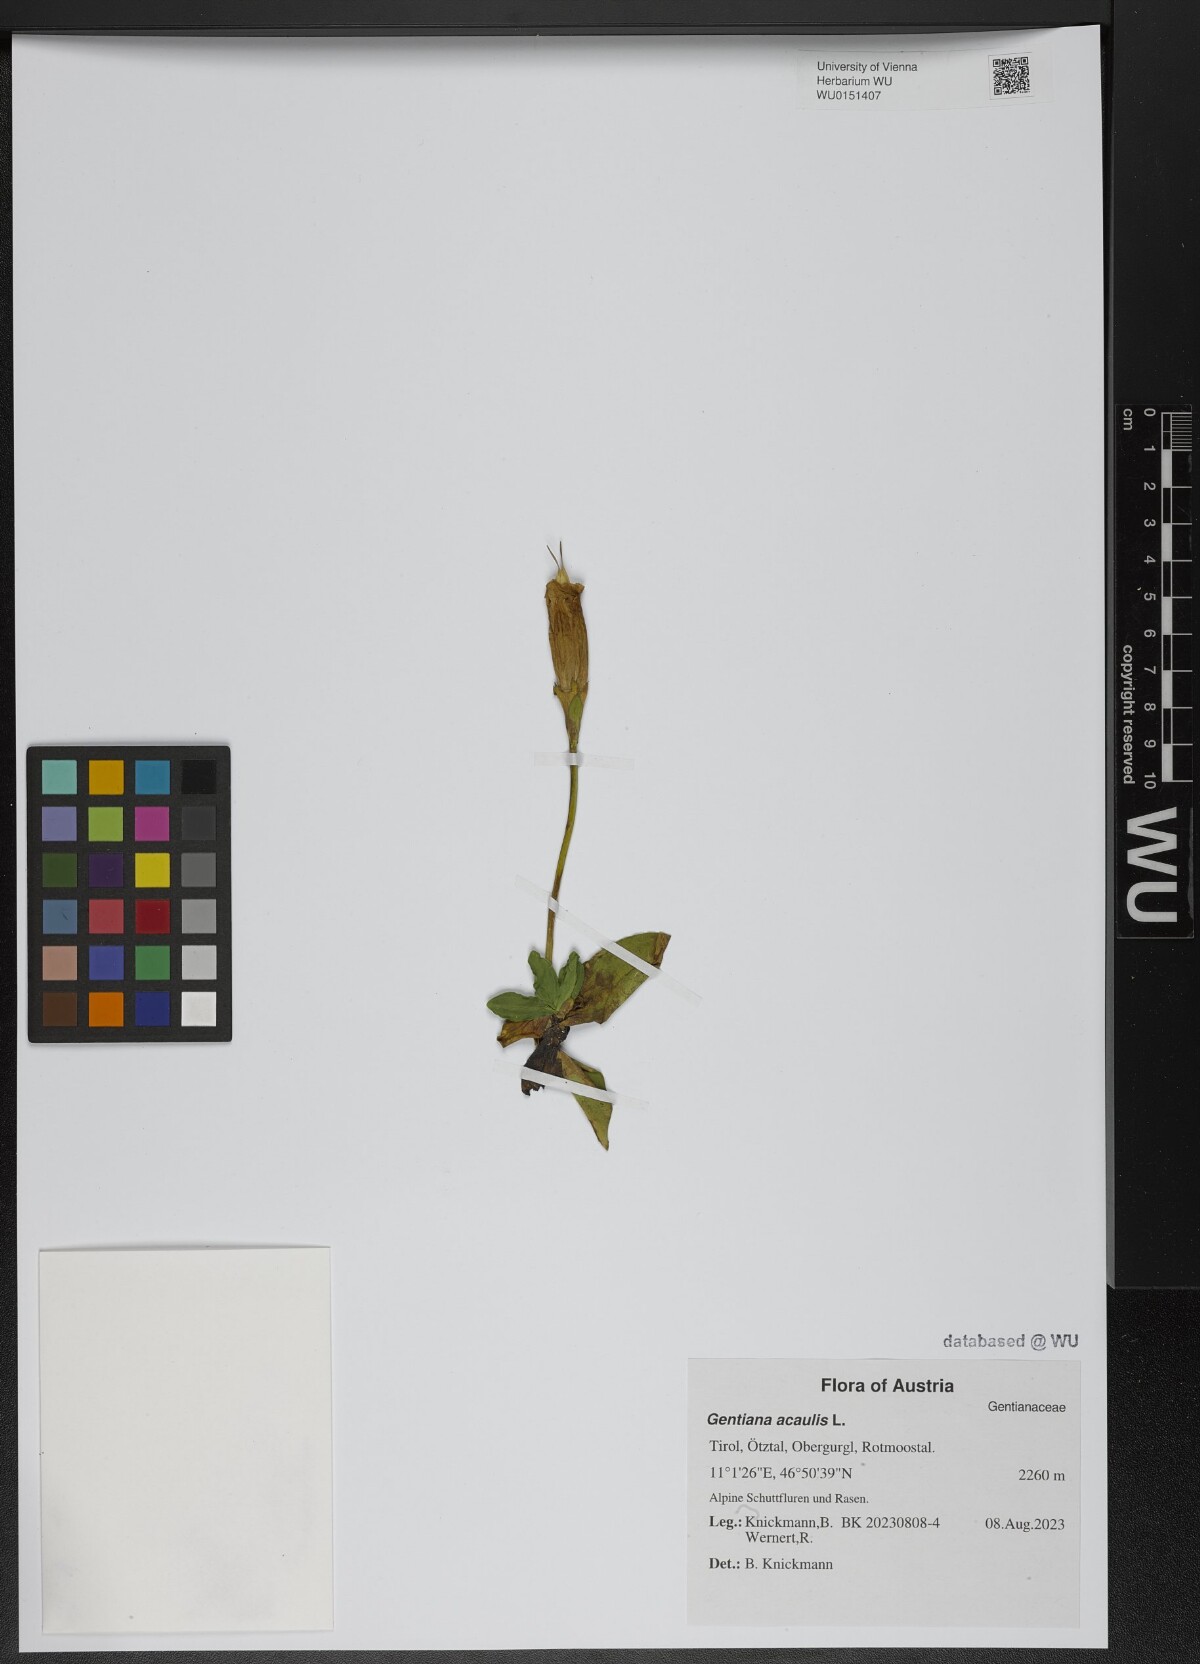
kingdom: Plantae
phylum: Tracheophyta
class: Magnoliopsida
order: Gentianales
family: Gentianaceae
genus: Gentiana
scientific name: Gentiana acaulis
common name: Trumpet gentian
